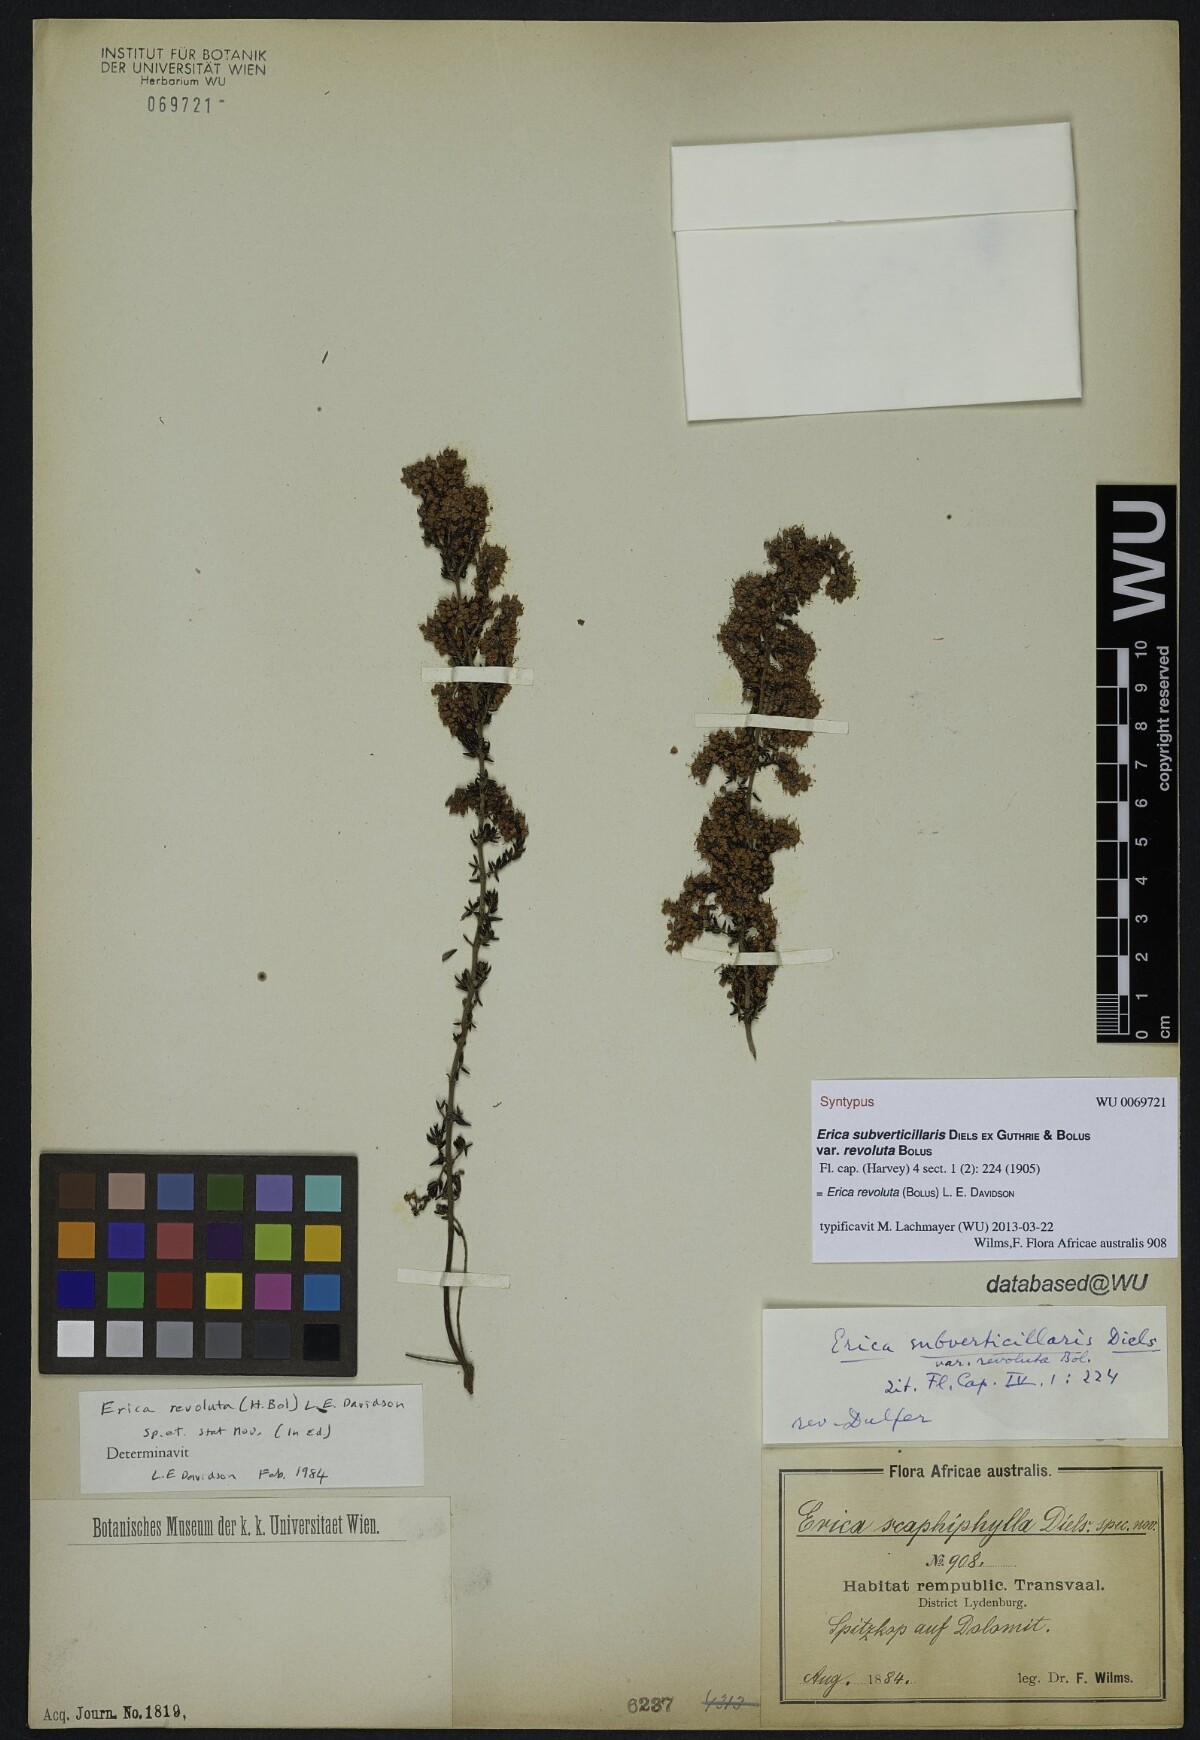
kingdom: Plantae
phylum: Tracheophyta
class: Magnoliopsida
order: Ericales
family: Ericaceae
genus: Erica
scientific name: Erica revoluta
